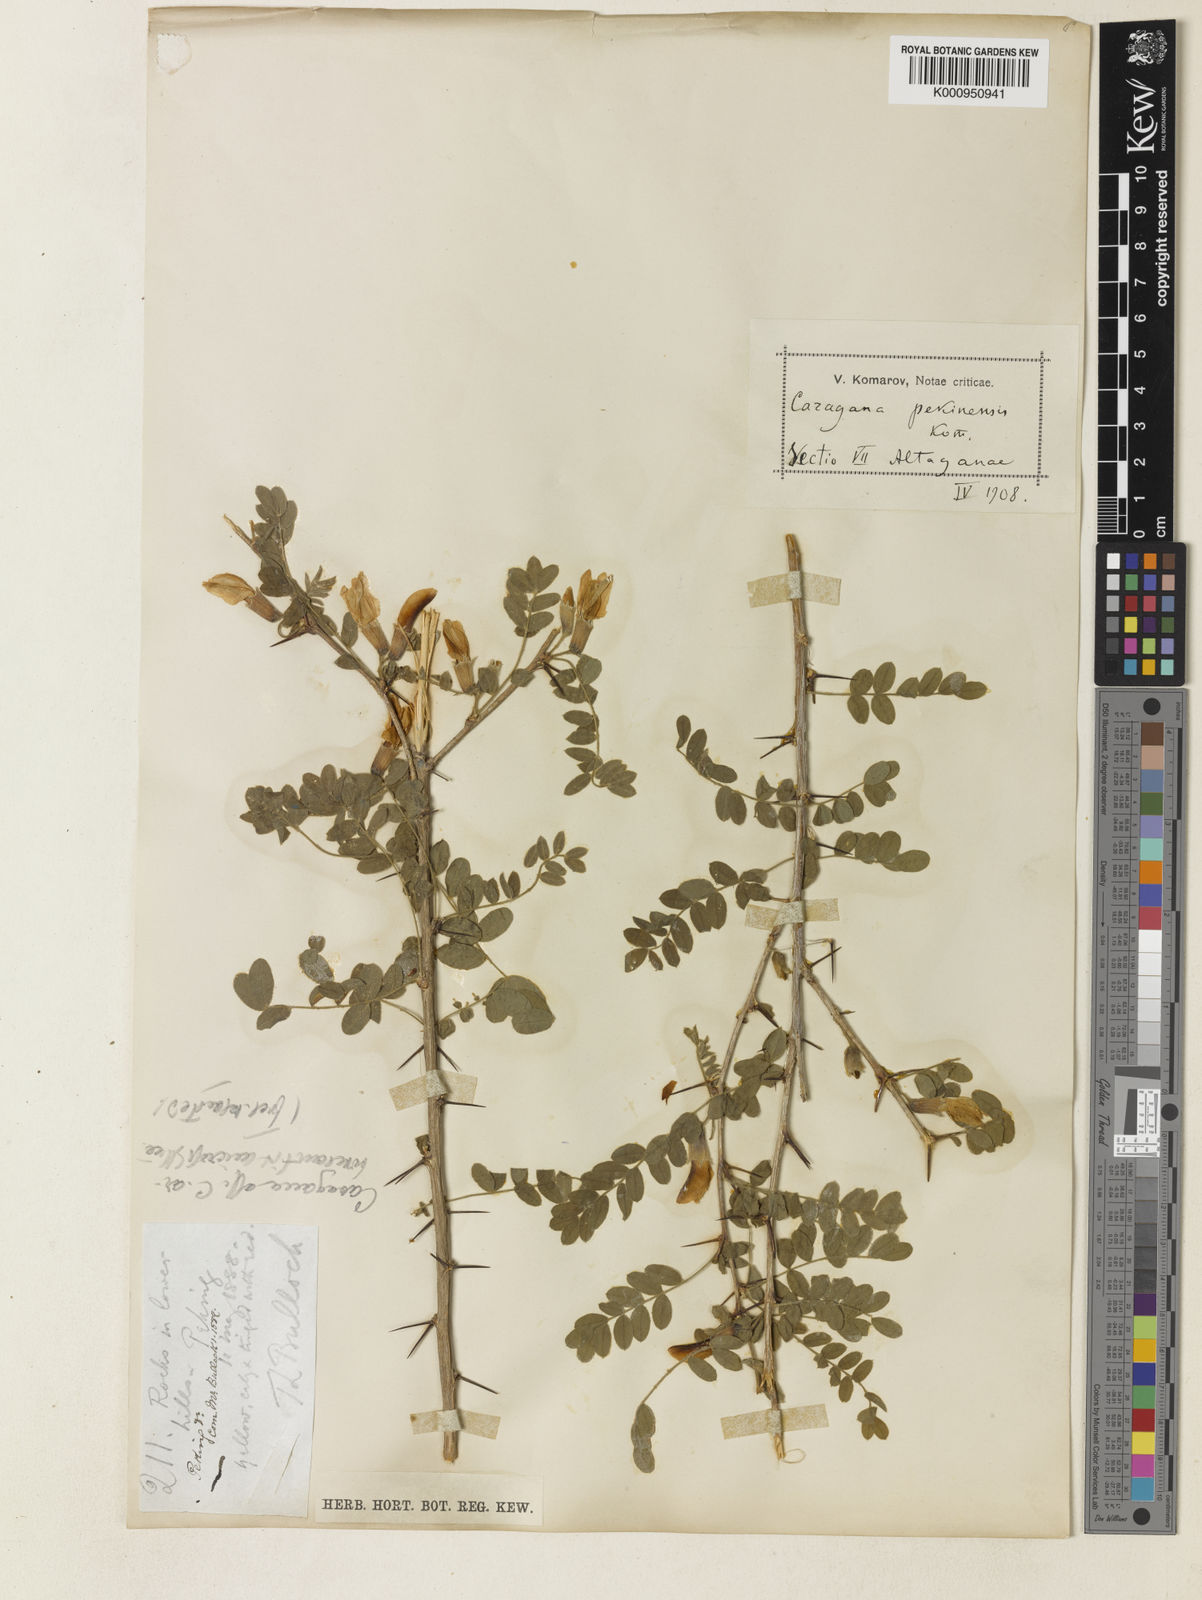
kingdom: Plantae
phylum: Tracheophyta
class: Magnoliopsida
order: Fabales
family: Fabaceae
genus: Caragana
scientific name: Caragana pekinensis
